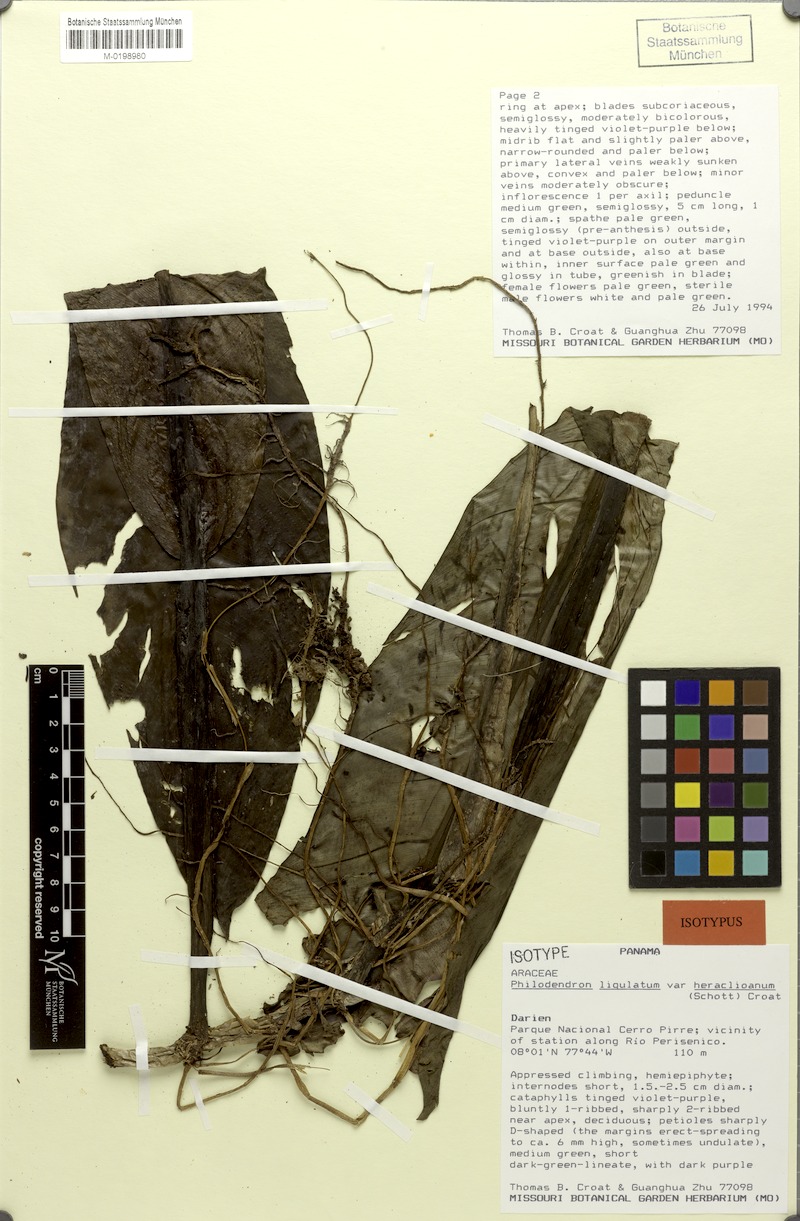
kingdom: Plantae
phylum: Tracheophyta
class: Liliopsida
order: Alismatales
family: Araceae
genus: Philodendron
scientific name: Philodendron ligulatum
